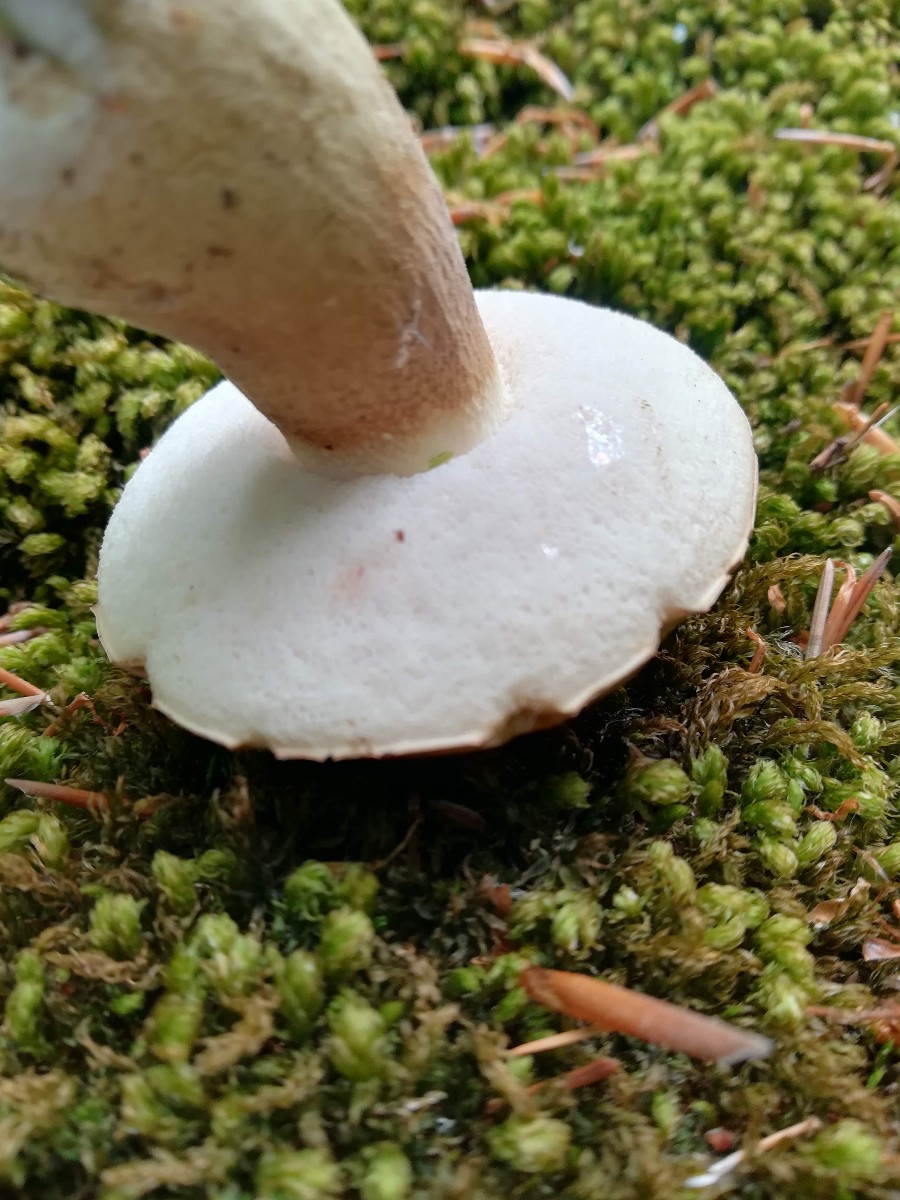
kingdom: Fungi
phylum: Basidiomycota
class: Agaricomycetes
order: Boletales
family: Boletaceae
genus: Tylopilus
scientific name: Tylopilus felleus
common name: galderørhat
